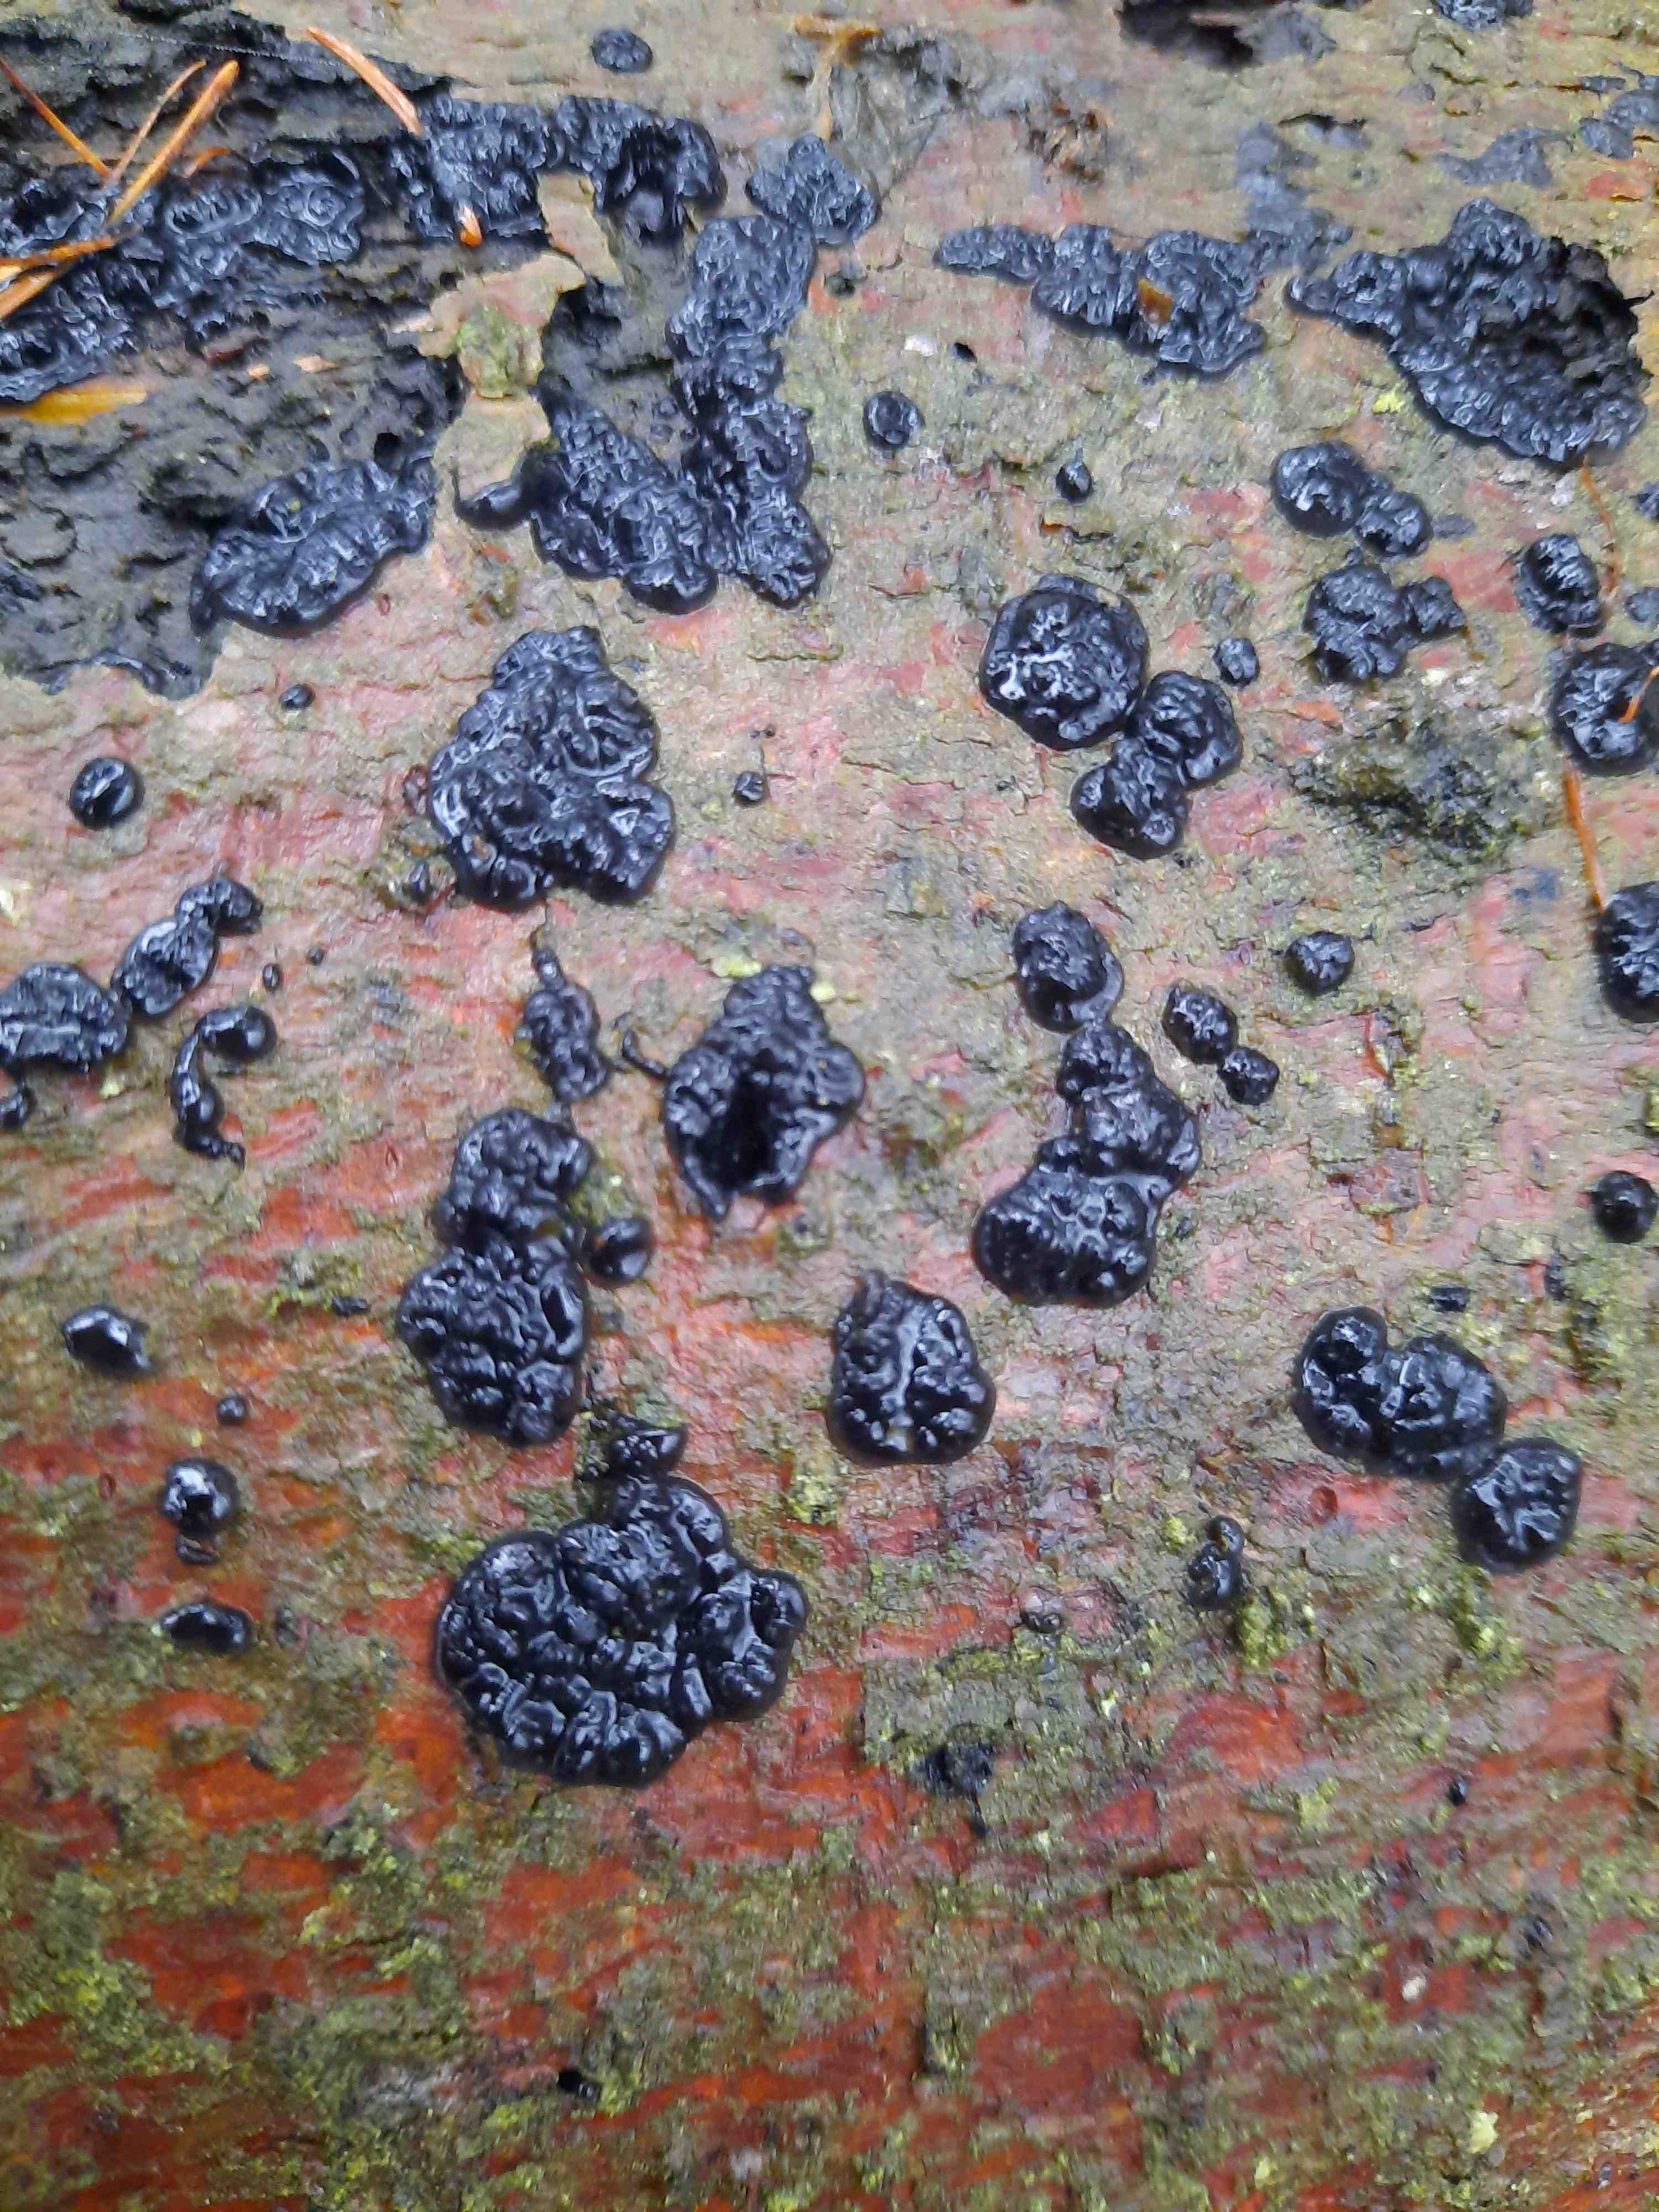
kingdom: Fungi
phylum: Basidiomycota
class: Agaricomycetes
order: Auriculariales
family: Auriculariaceae
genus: Exidia
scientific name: Exidia pithya
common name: gran-bævretop
